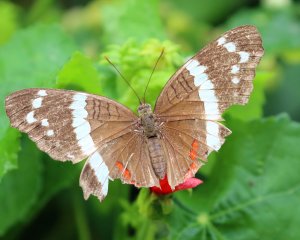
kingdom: Animalia
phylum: Arthropoda
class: Insecta
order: Lepidoptera
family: Nymphalidae
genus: Anartia
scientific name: Anartia fatima
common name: Banded Peacock
